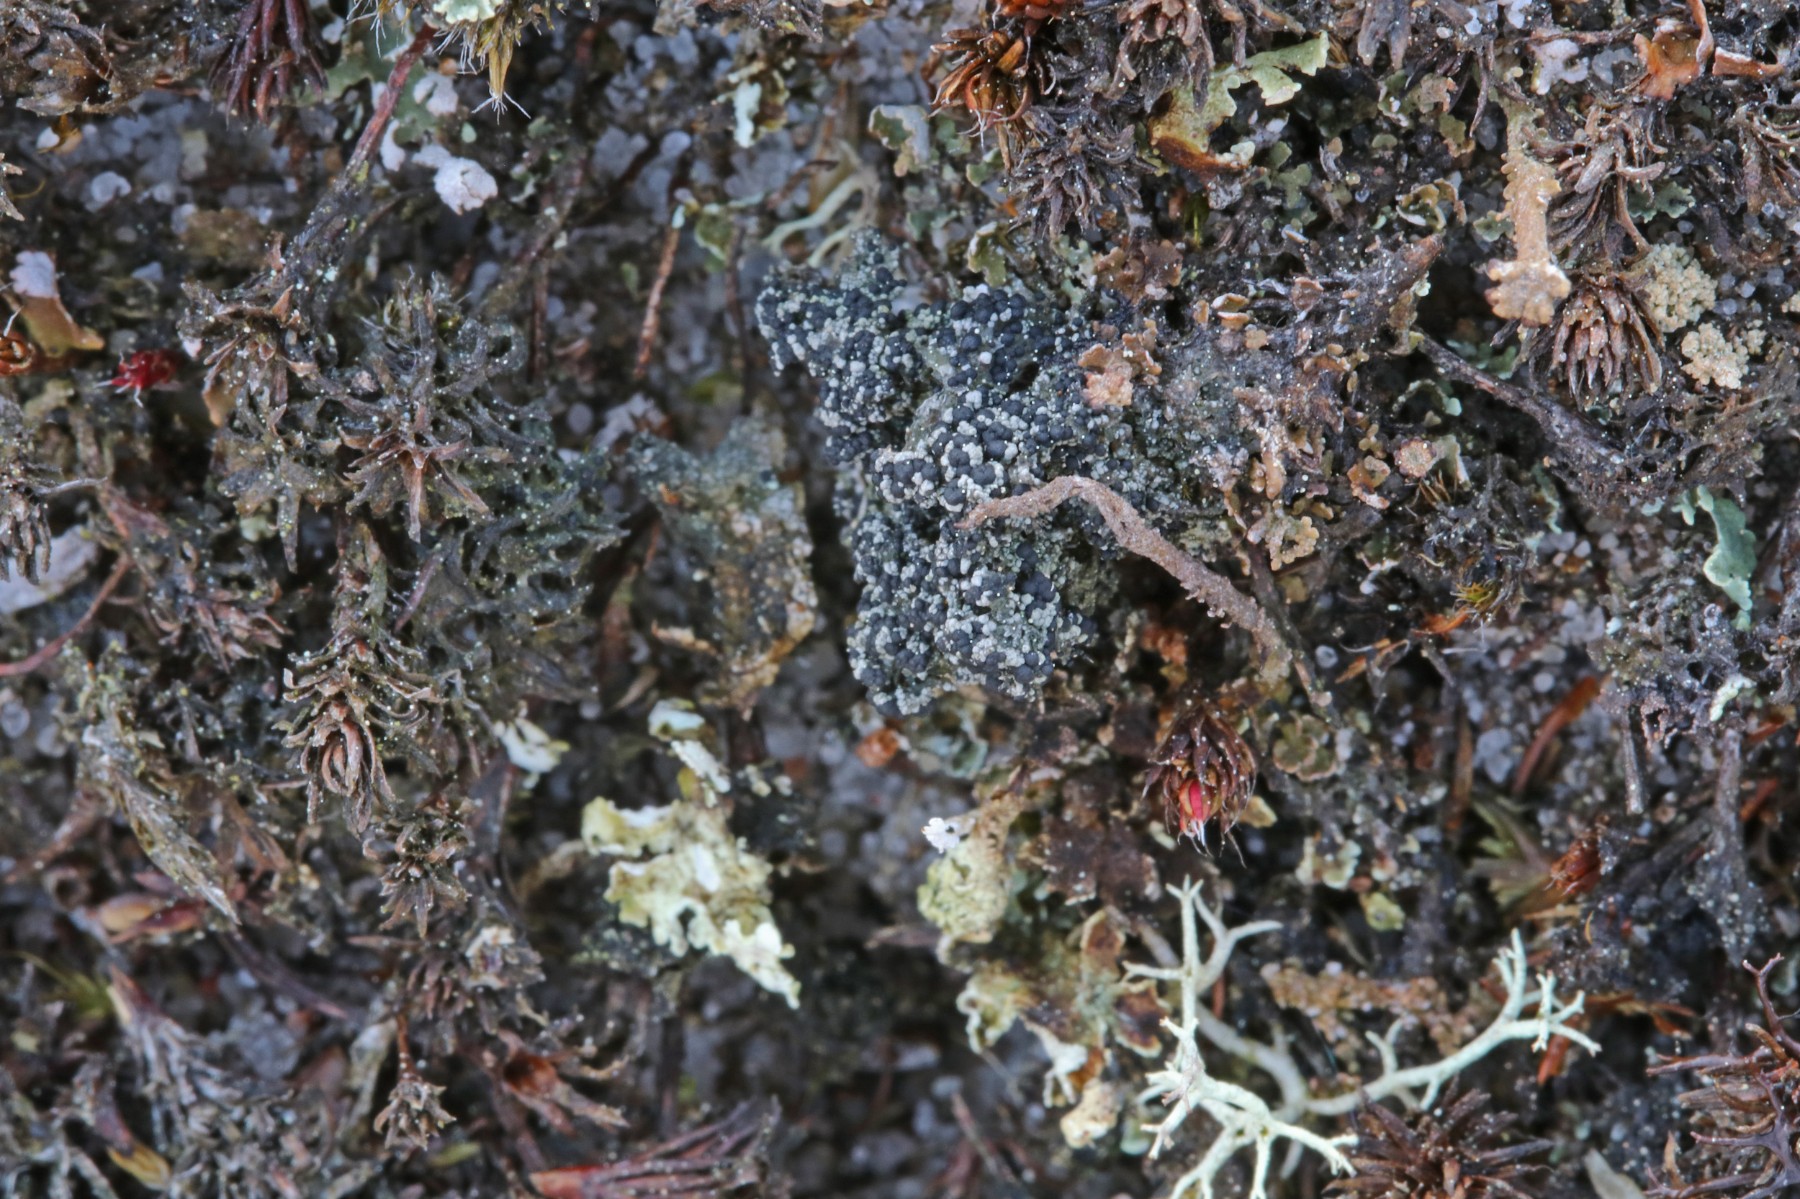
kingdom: Fungi
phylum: Ascomycota
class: Lecanoromycetes
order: Lecanorales
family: Byssolomataceae
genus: Micarea
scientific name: Micarea lignaria
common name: tørve-knaplav
